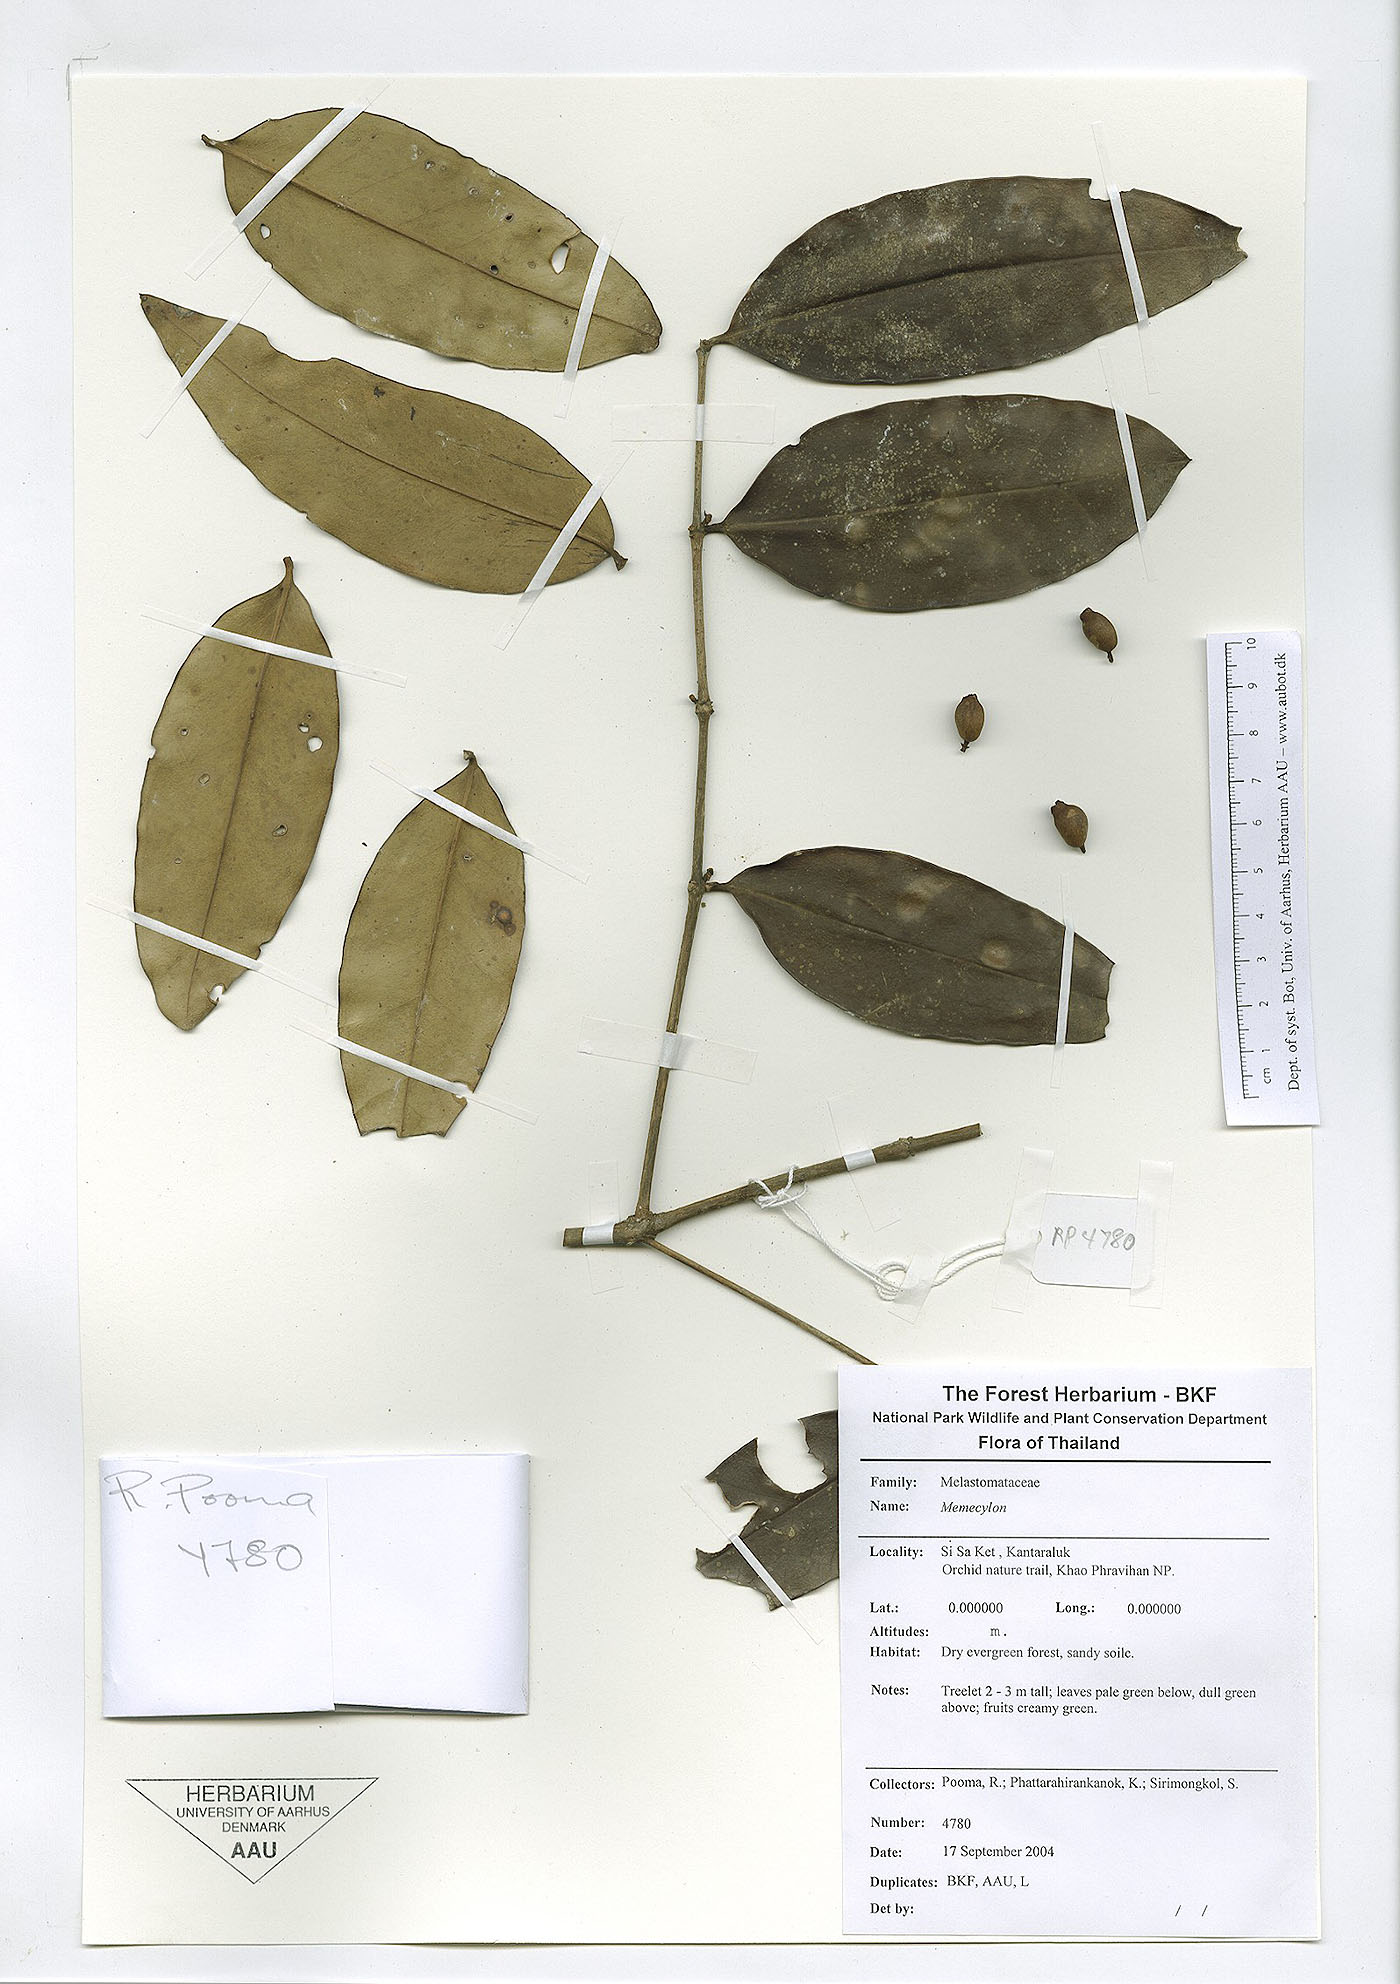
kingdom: Plantae
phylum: Tracheophyta
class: Magnoliopsida
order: Myrtales
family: Melastomataceae
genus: Memecylon
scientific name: Memecylon caeruleum
